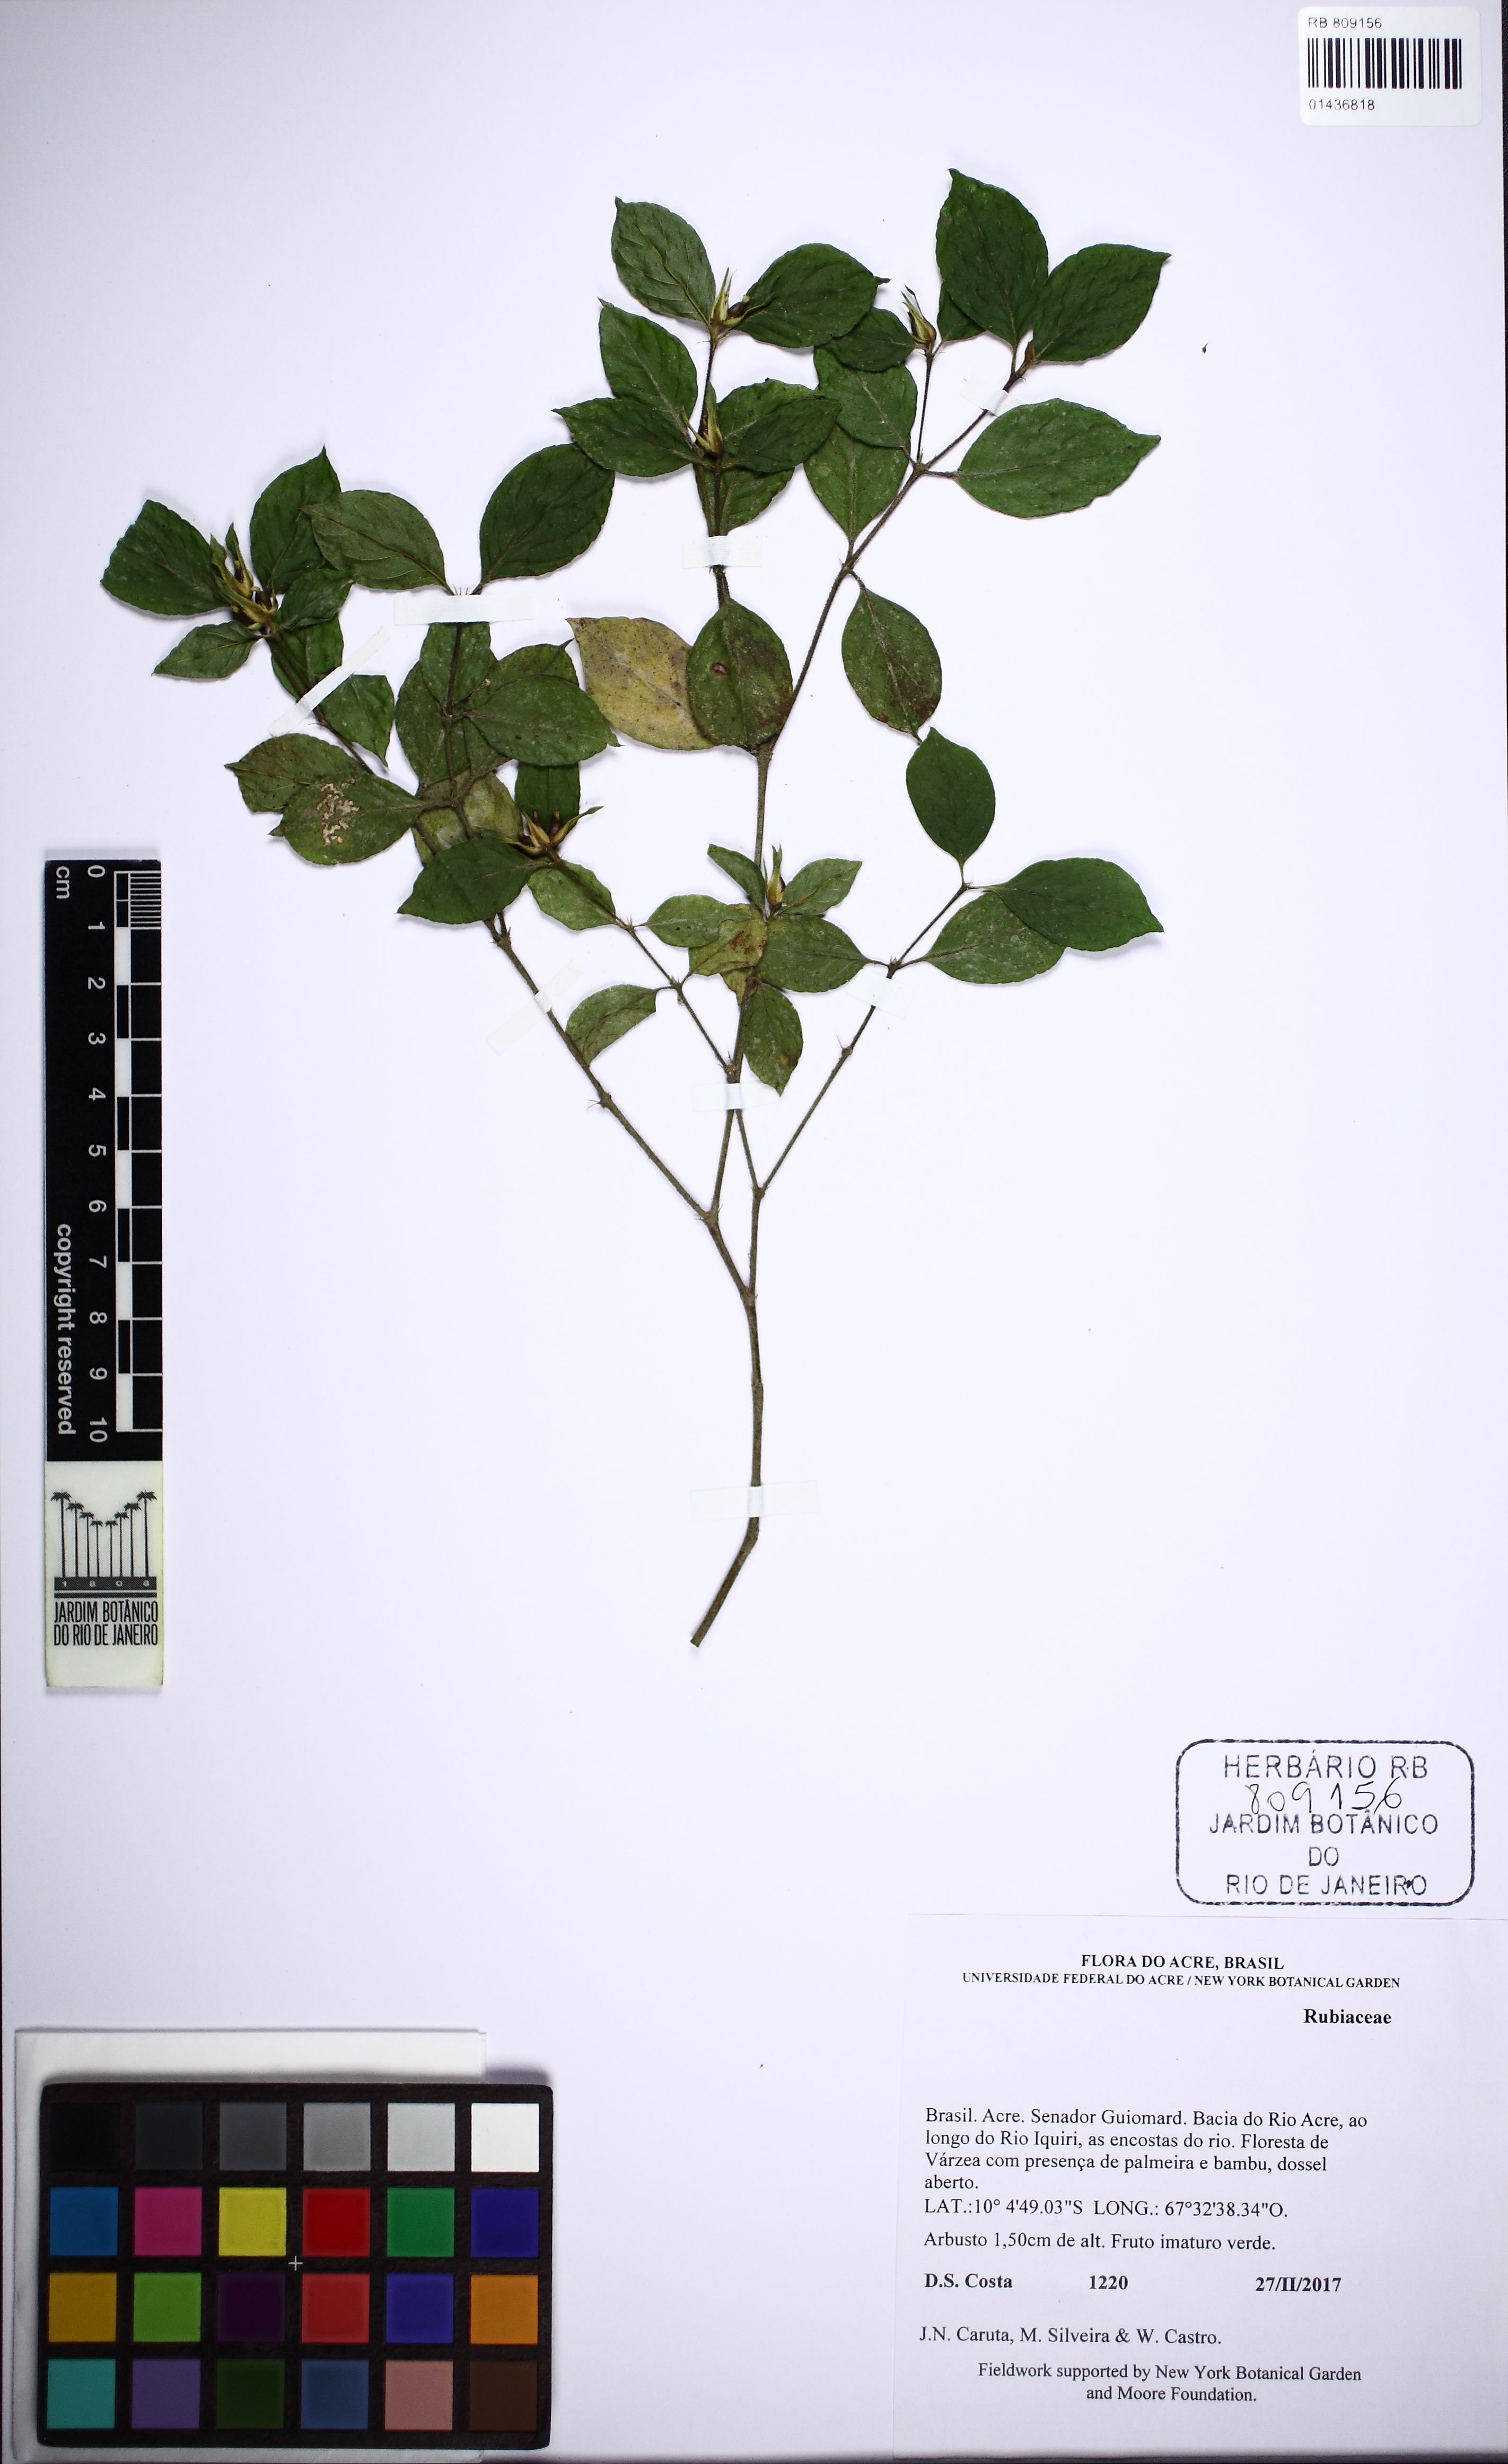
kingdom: Plantae
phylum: Tracheophyta
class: Magnoliopsida
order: Gentianales
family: Rubiaceae
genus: Palicourea
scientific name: Palicourea prunifolia
